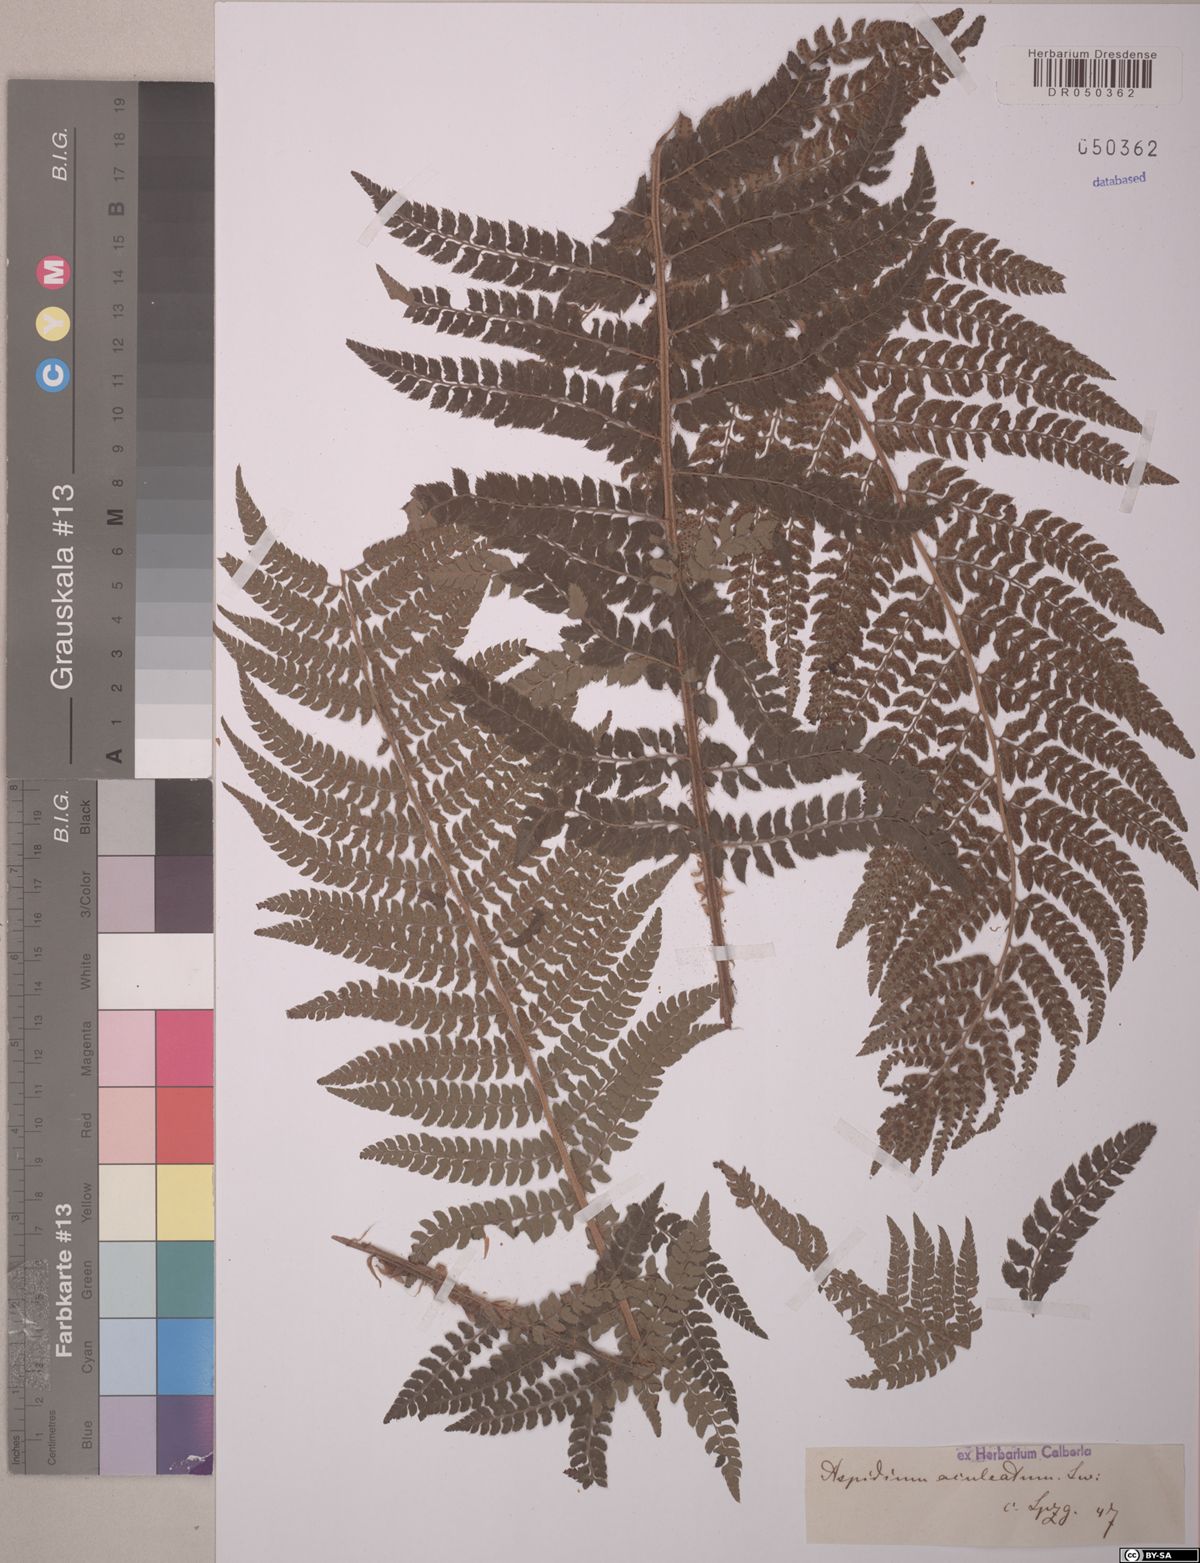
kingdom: Plantae
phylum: Tracheophyta
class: Polypodiopsida
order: Polypodiales
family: Dryopteridaceae
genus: Polystichum
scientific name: Polystichum aculeatum
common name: Hard shield-fern
